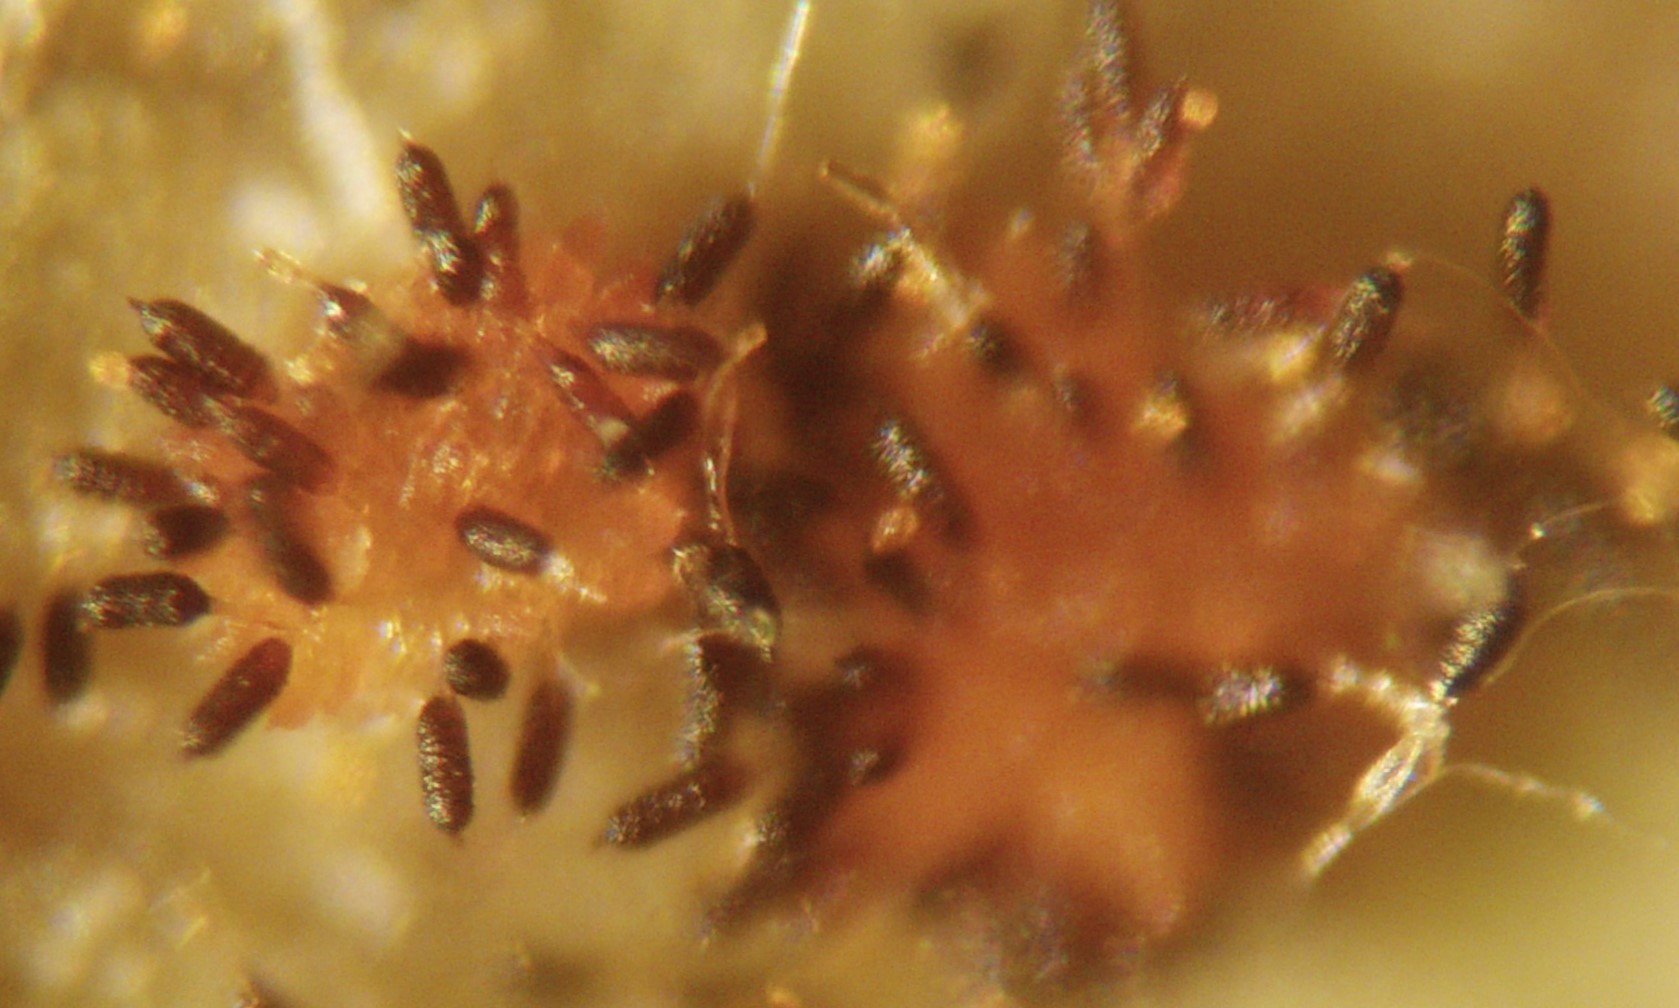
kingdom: Fungi
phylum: Basidiomycota
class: Pucciniomycetes
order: Pucciniales
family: Phragmidiaceae
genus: Phragmidium
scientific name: Phragmidium tuberculatum
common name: Rose rust
